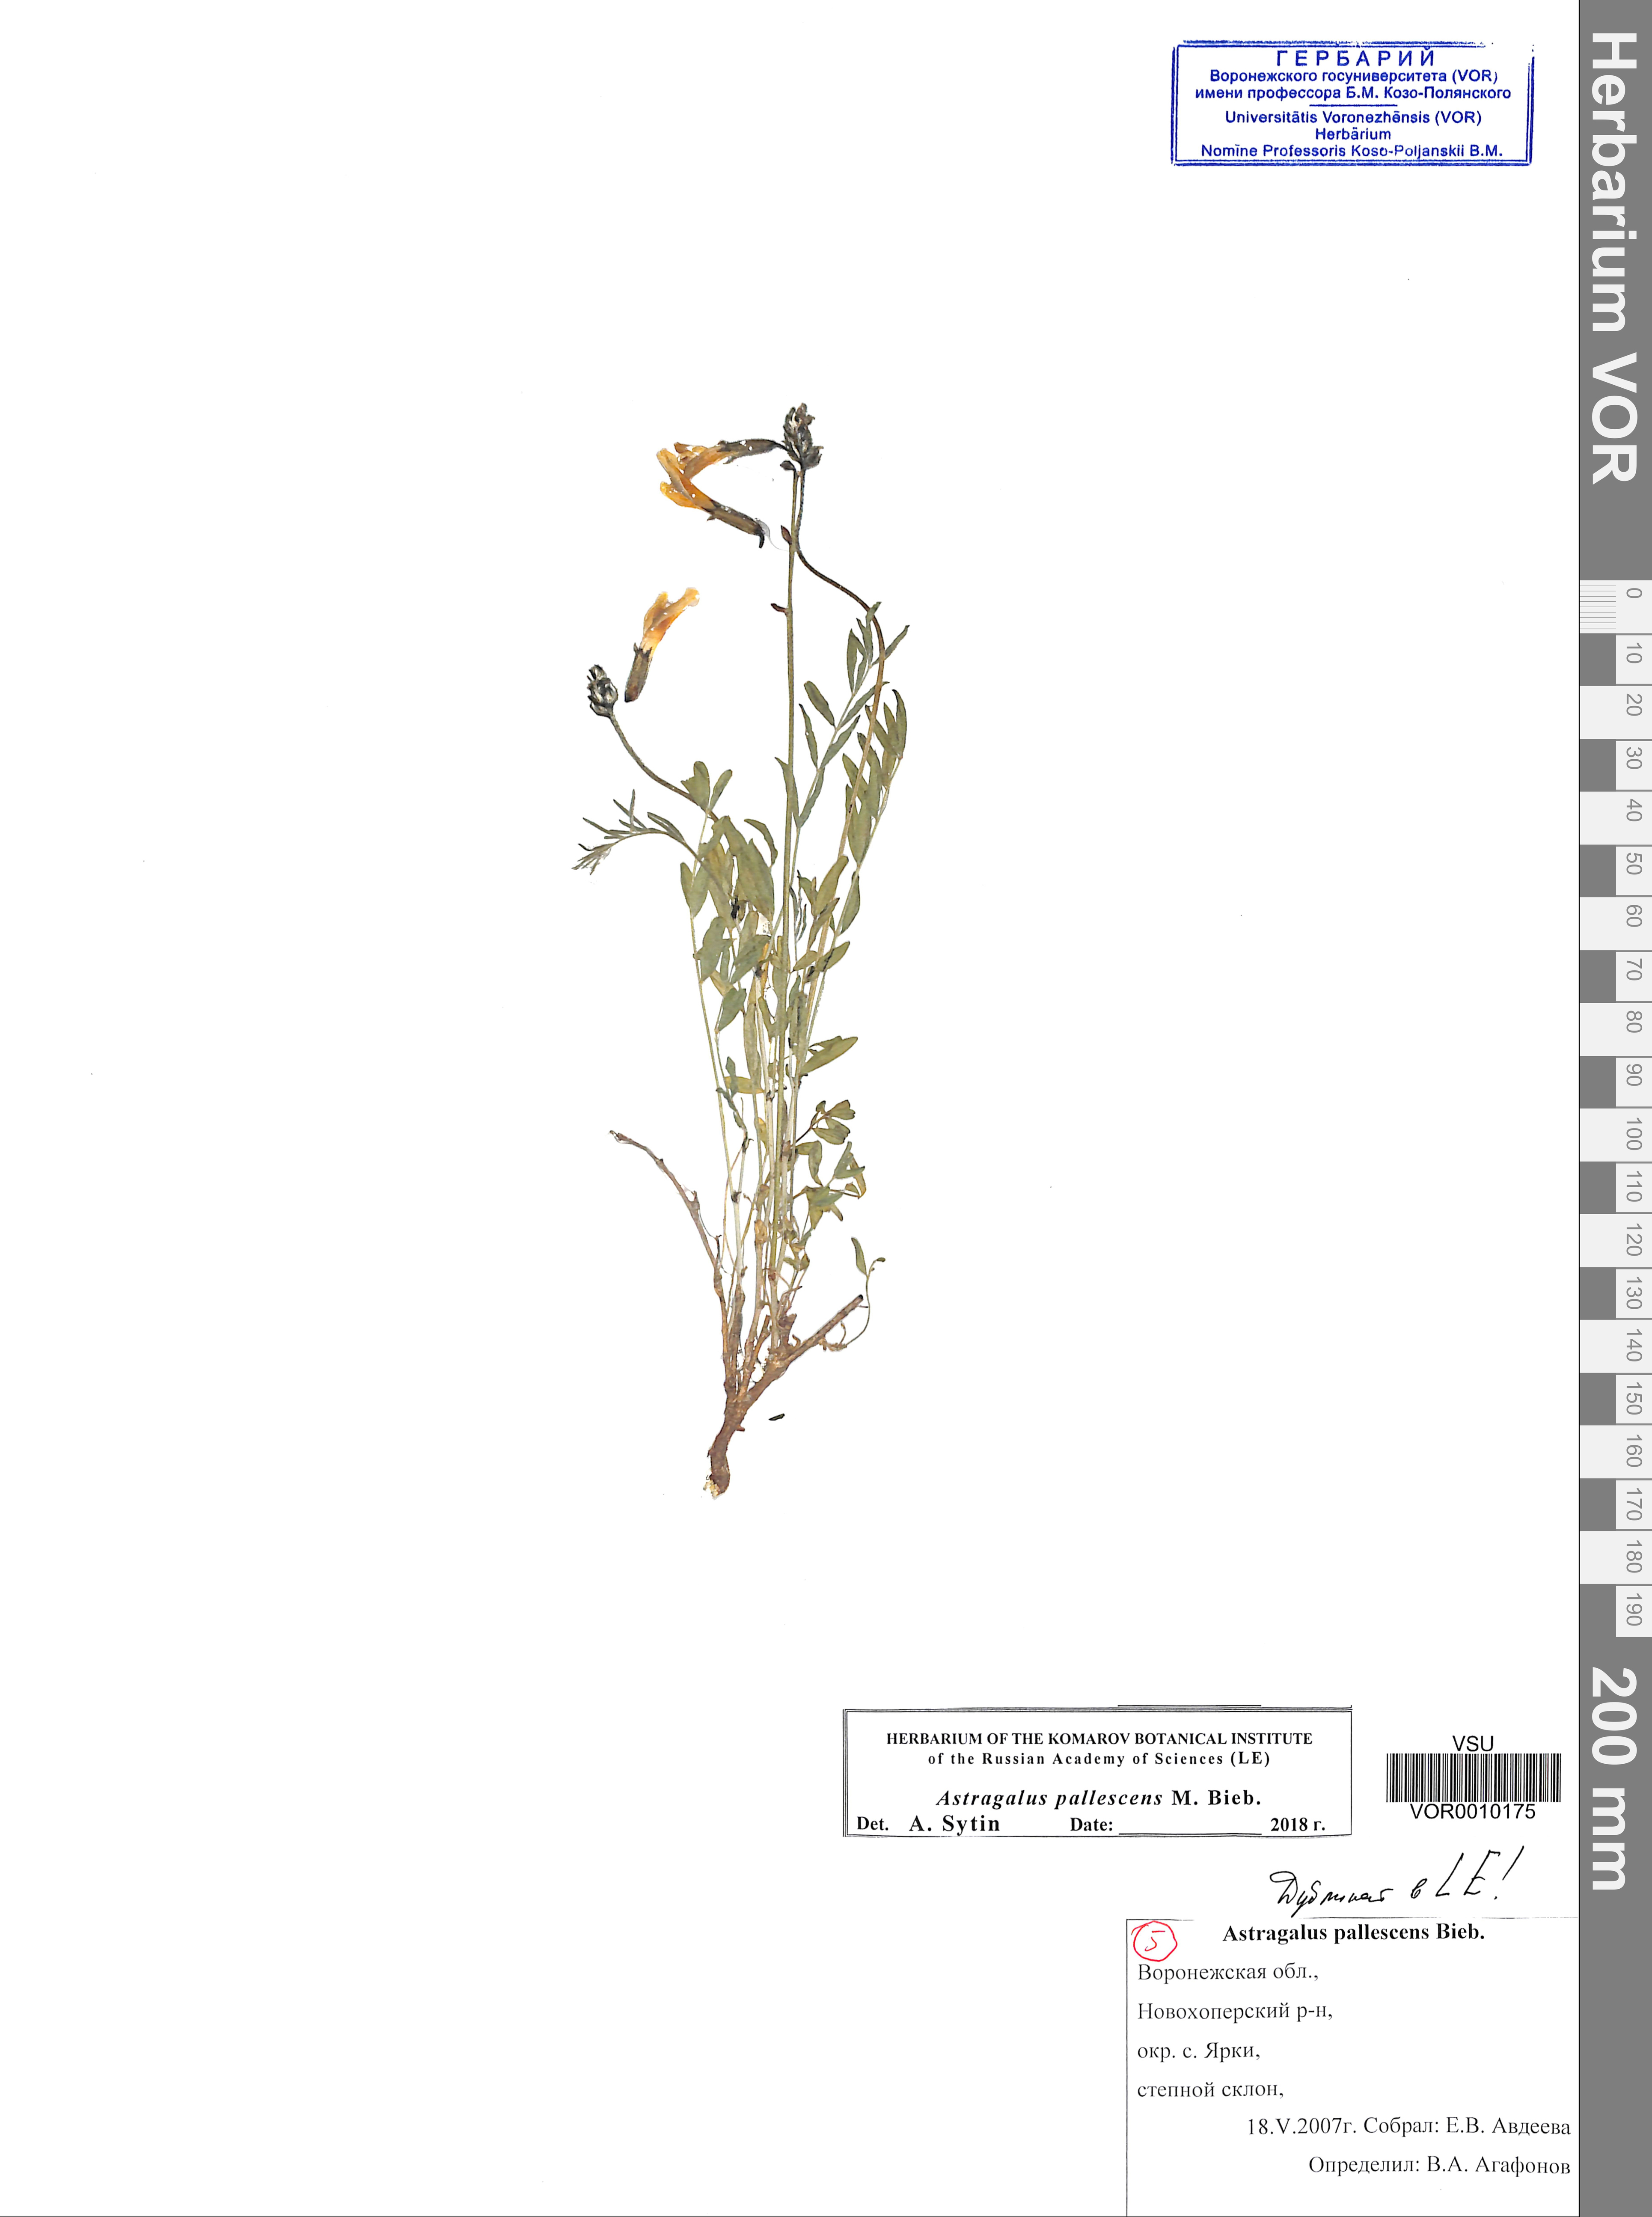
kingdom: Plantae
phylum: Tracheophyta
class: Magnoliopsida
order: Fabales
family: Fabaceae
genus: Astragalus
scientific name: Astragalus pallescens
